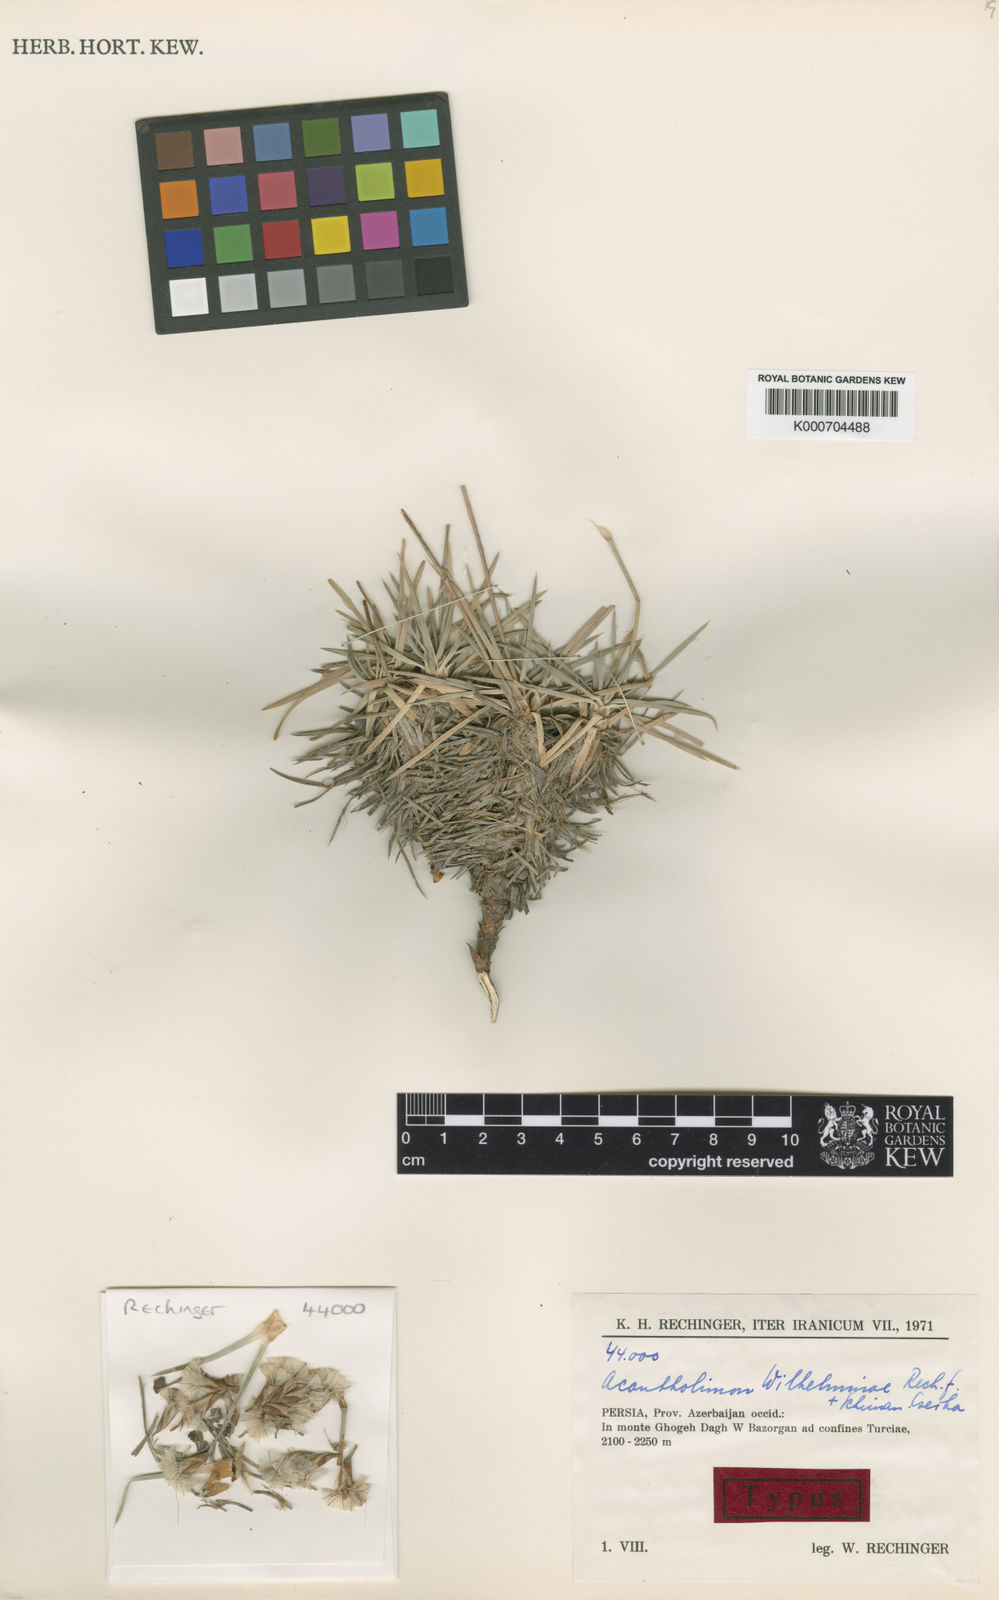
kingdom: Plantae
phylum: Tracheophyta
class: Magnoliopsida
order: Caryophyllales
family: Plumbaginaceae
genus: Acantholimon
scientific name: Acantholimon wilhelminae
